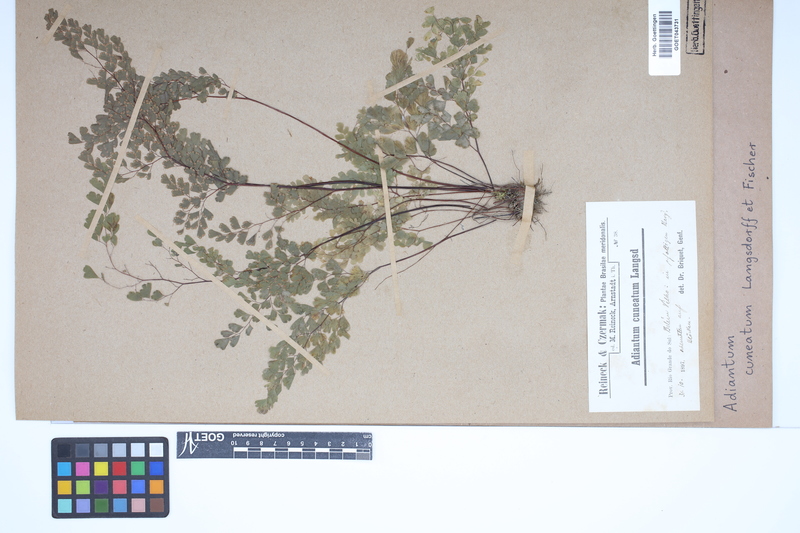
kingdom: Plantae
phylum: Tracheophyta
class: Polypodiopsida
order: Polypodiales
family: Pteridaceae
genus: Adiantum
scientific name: Adiantum raddianum
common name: Delta maidenhair fern
